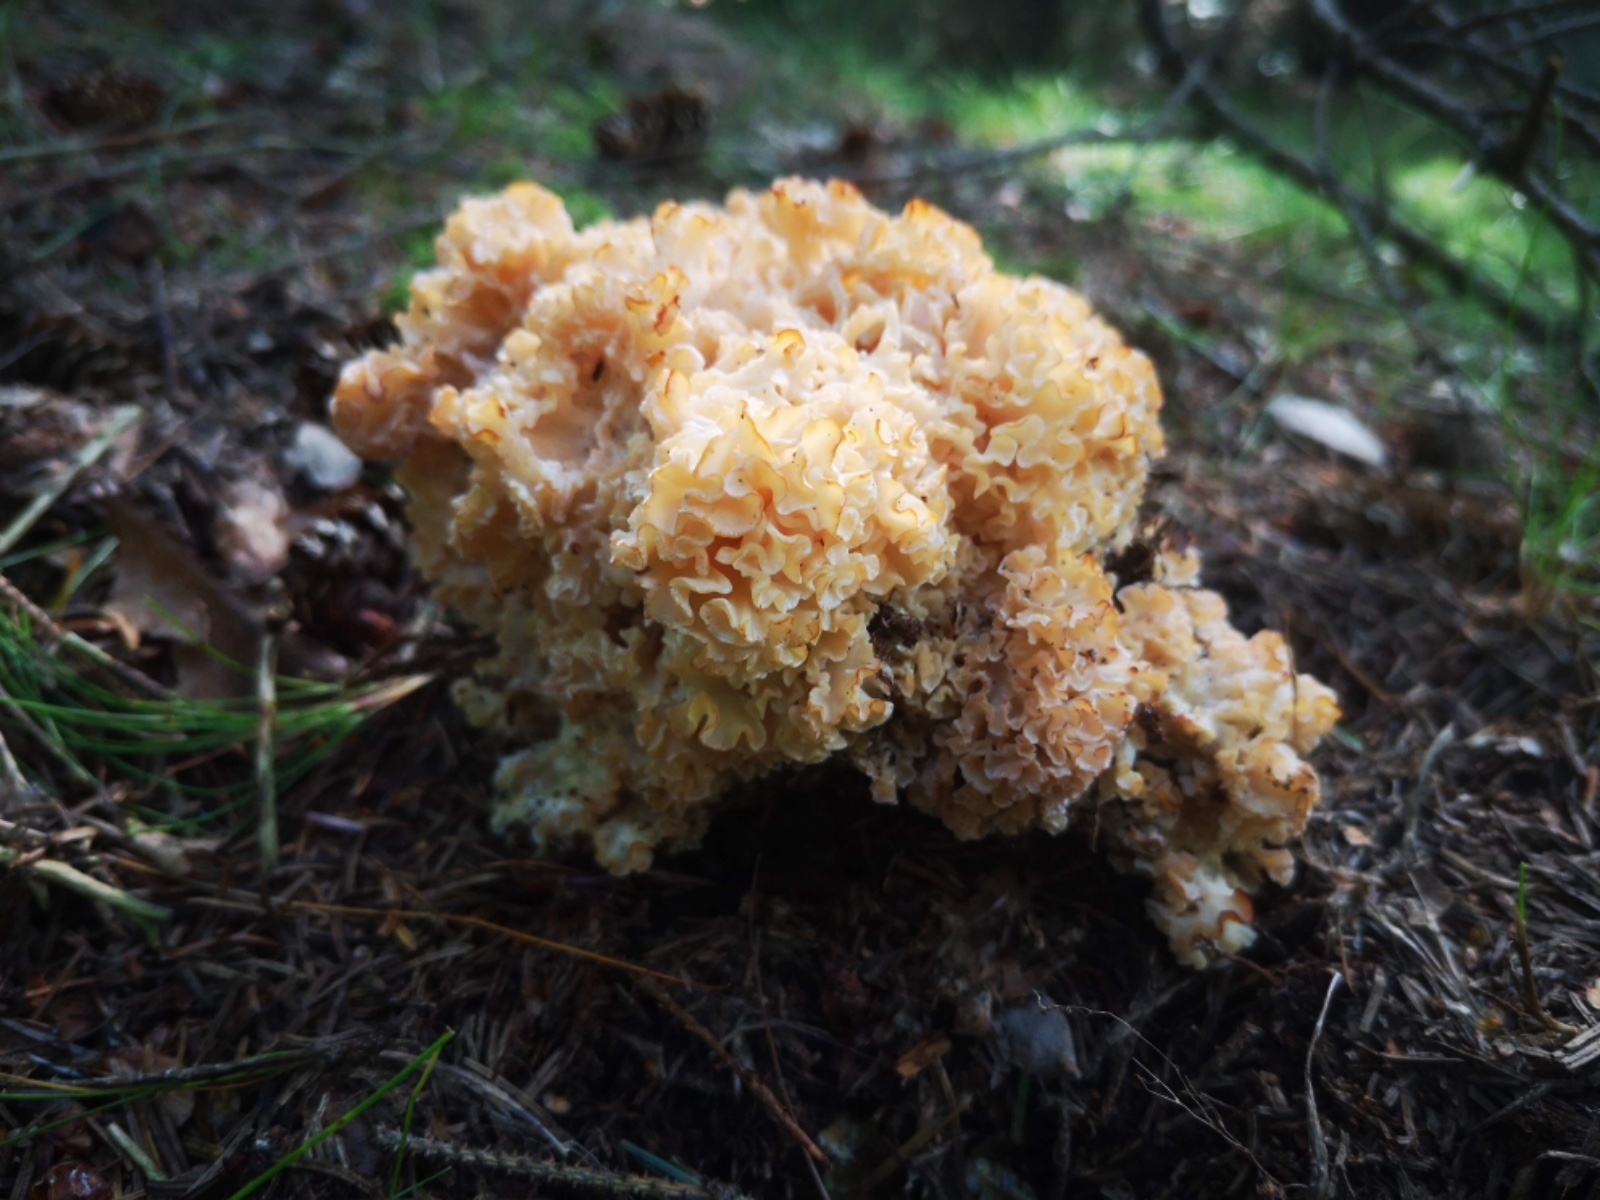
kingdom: Fungi
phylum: Basidiomycota
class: Agaricomycetes
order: Polyporales
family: Sparassidaceae
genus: Sparassis
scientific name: Sparassis crispa
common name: kruset blomkålssvamp
